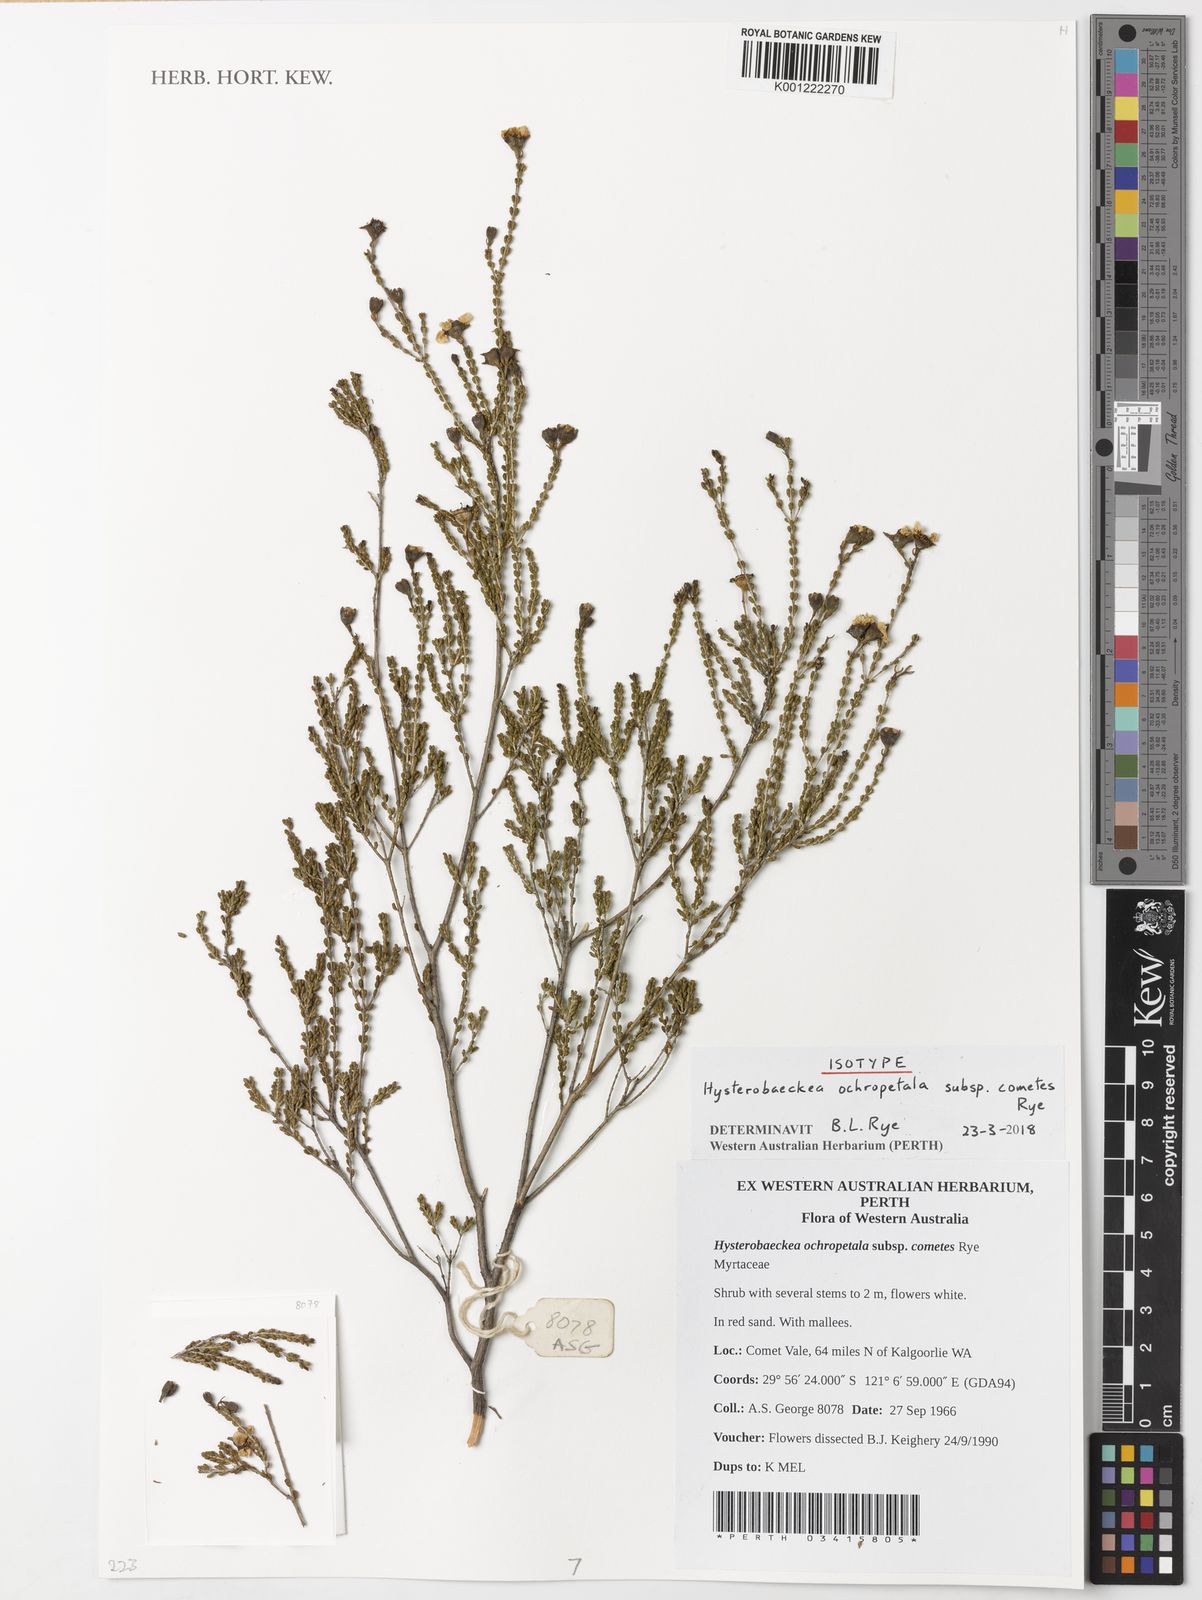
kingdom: Plantae
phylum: Tracheophyta
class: Magnoliopsida
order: Myrtales
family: Myrtaceae
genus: Hysterobaeckea
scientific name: Hysterobaeckea ochropetala
